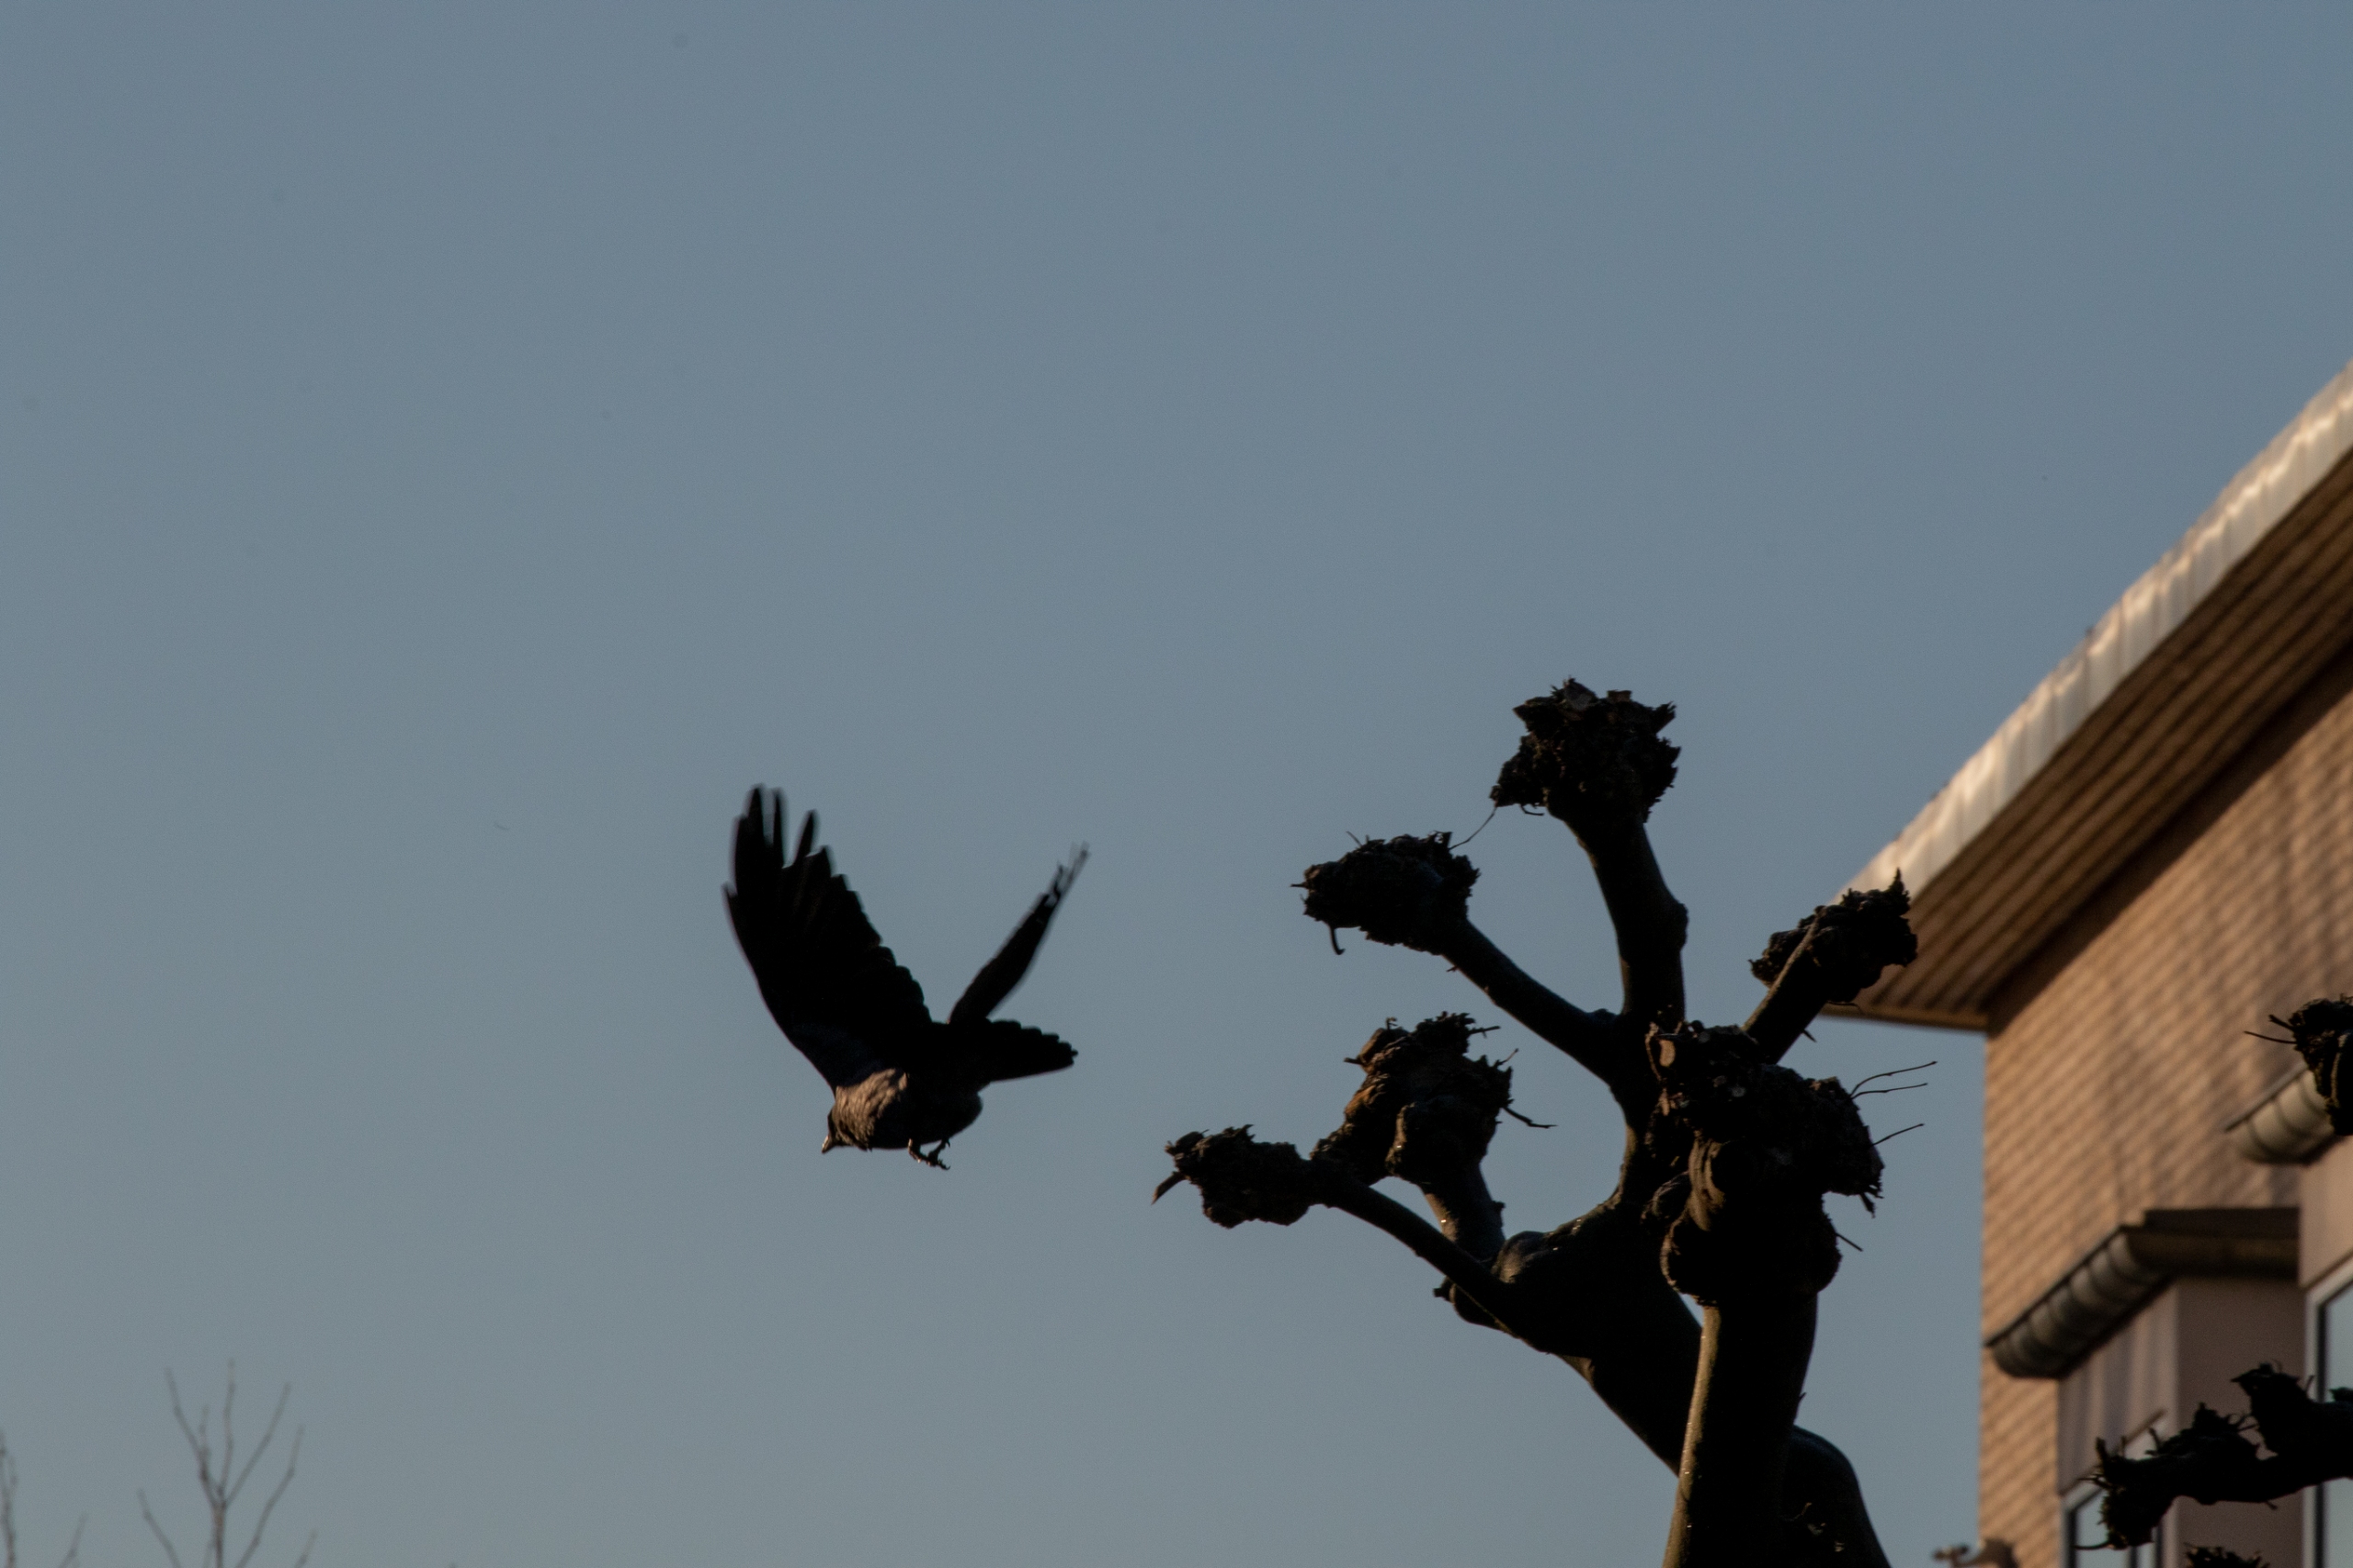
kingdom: Animalia
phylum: Chordata
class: Aves
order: Passeriformes
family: Corvidae
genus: Corvus
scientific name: Corvus cornix
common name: Gråkrage
